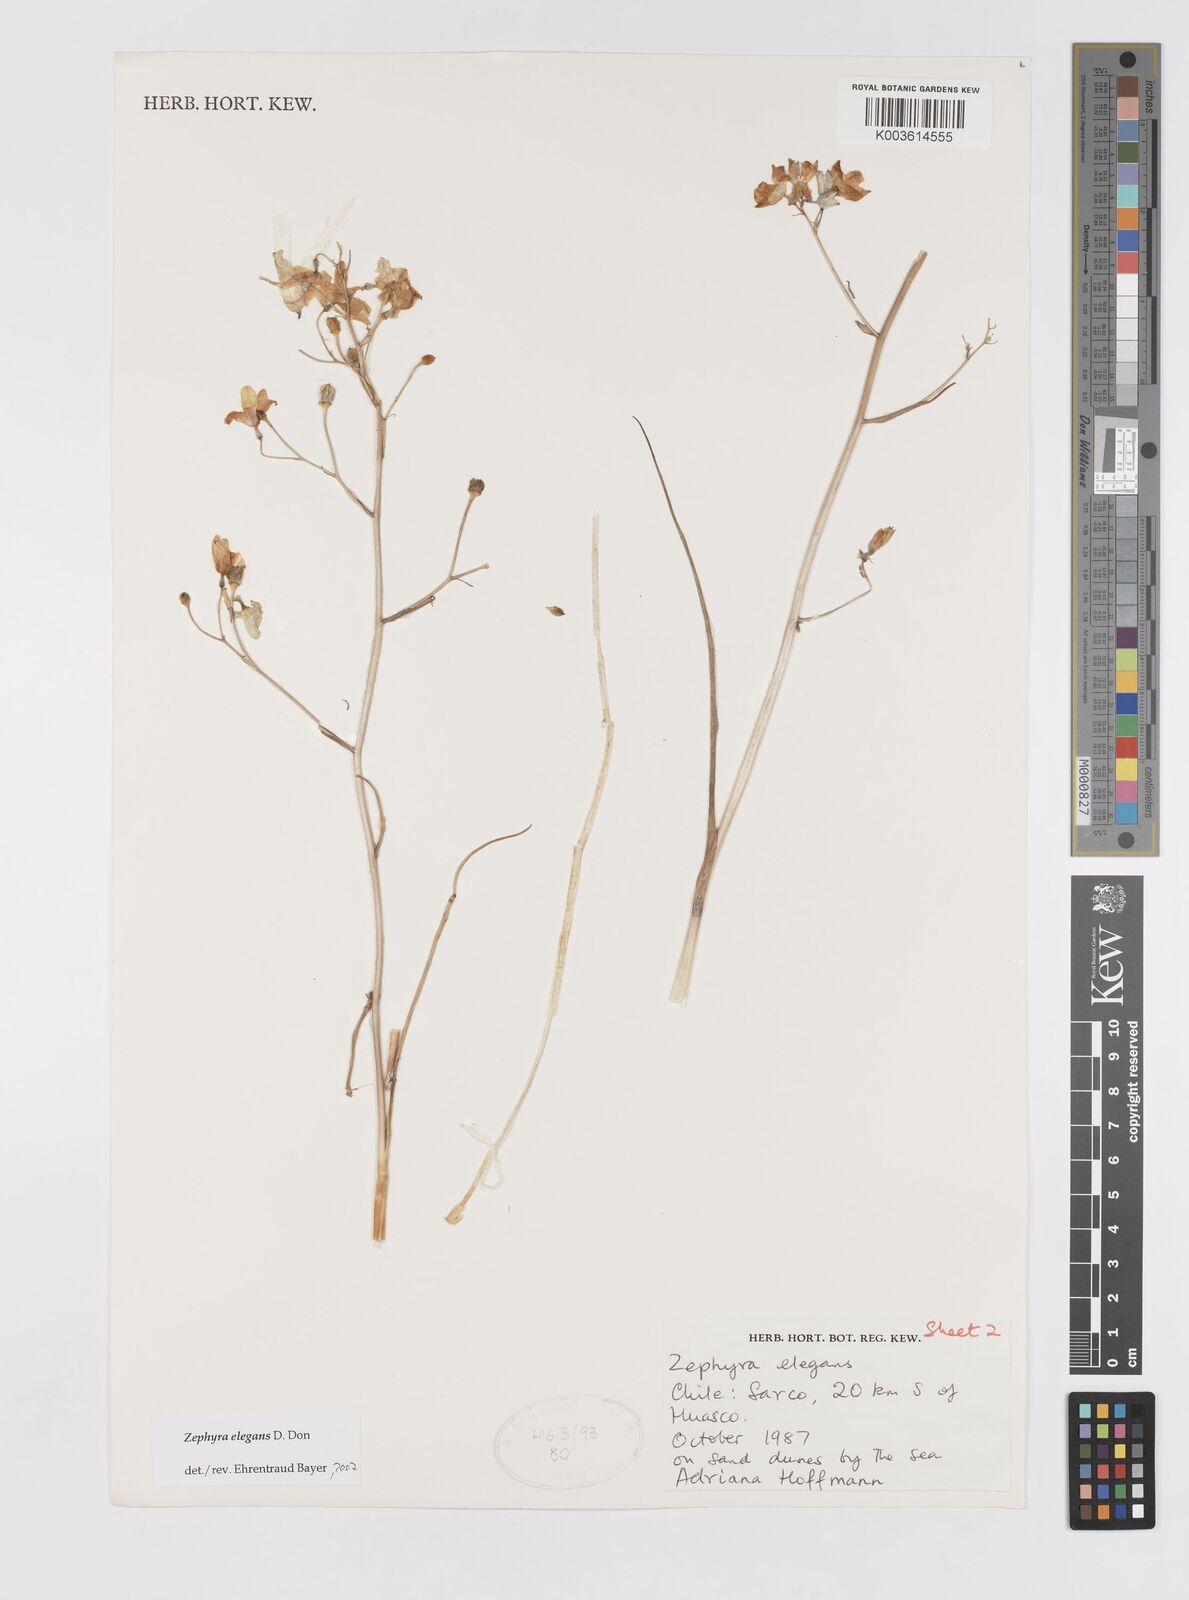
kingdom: Plantae
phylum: Tracheophyta
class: Liliopsida
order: Asparagales
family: Tecophilaeaceae
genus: Zephyra
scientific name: Zephyra elegans
